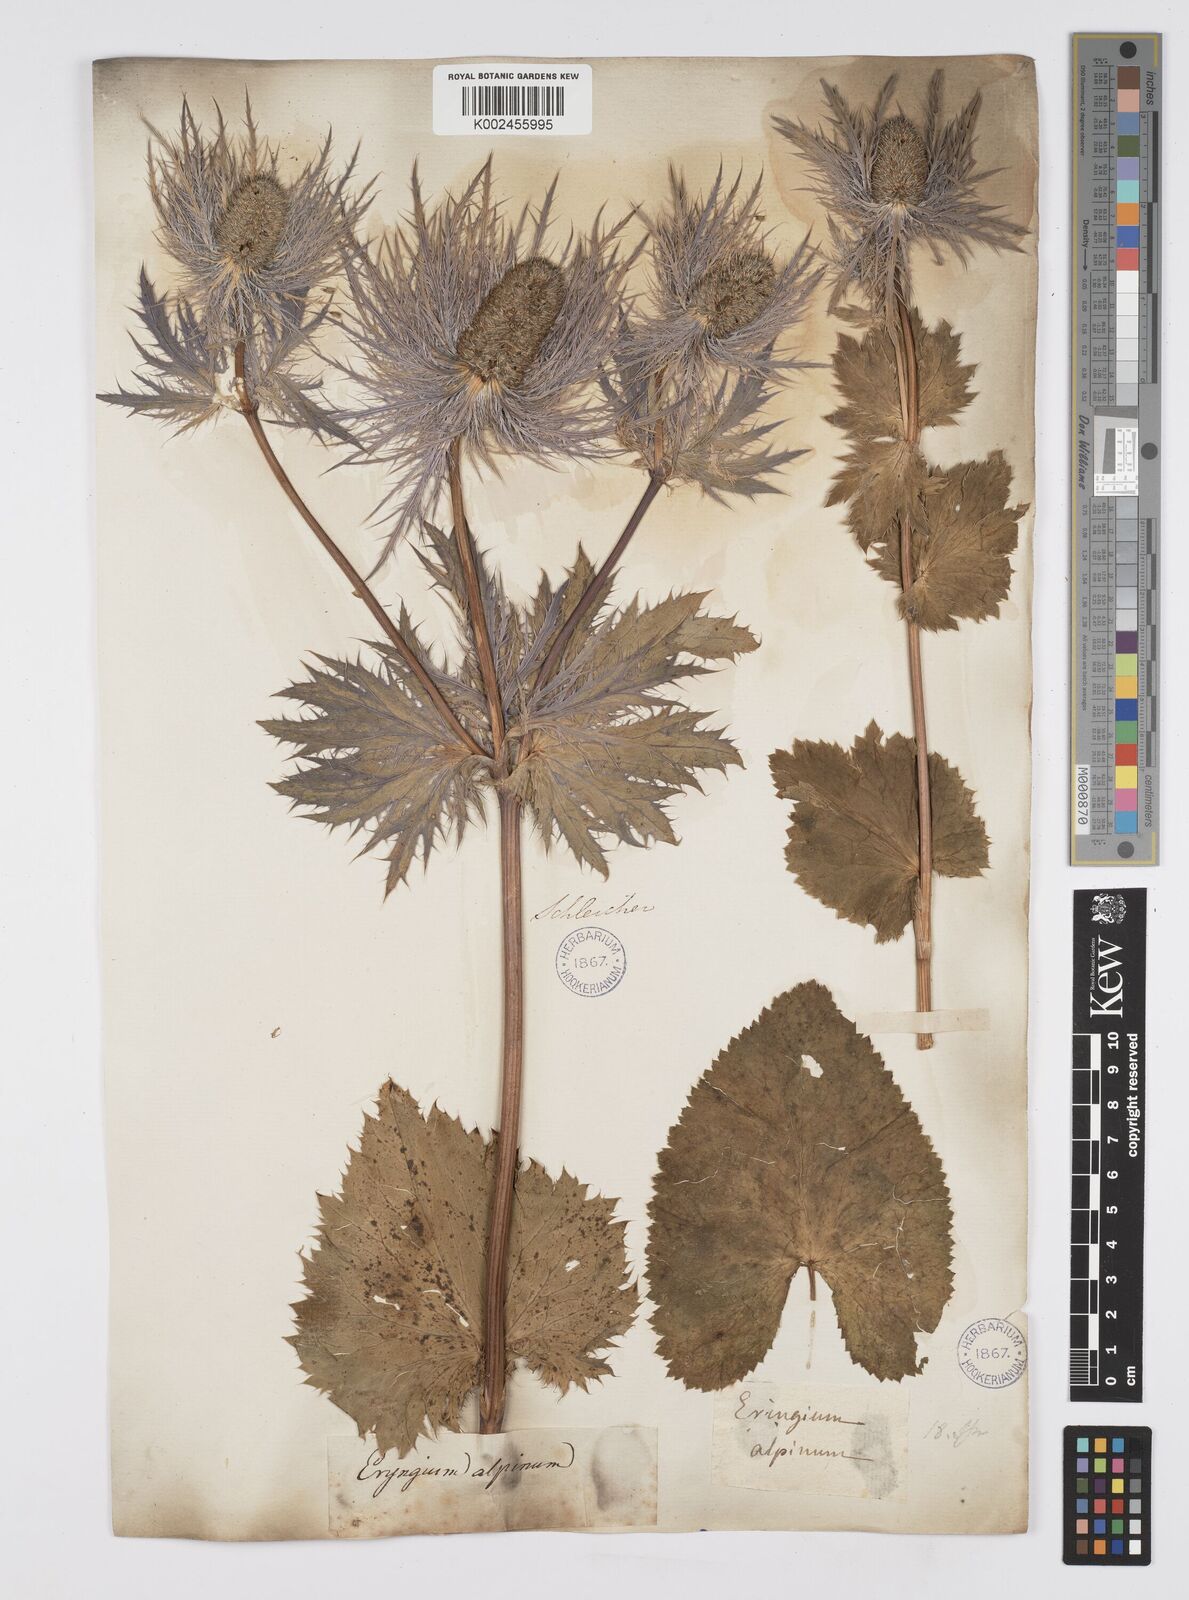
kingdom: Plantae
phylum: Tracheophyta
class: Magnoliopsida
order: Apiales
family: Apiaceae
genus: Eryngium
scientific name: Eryngium alpinum
